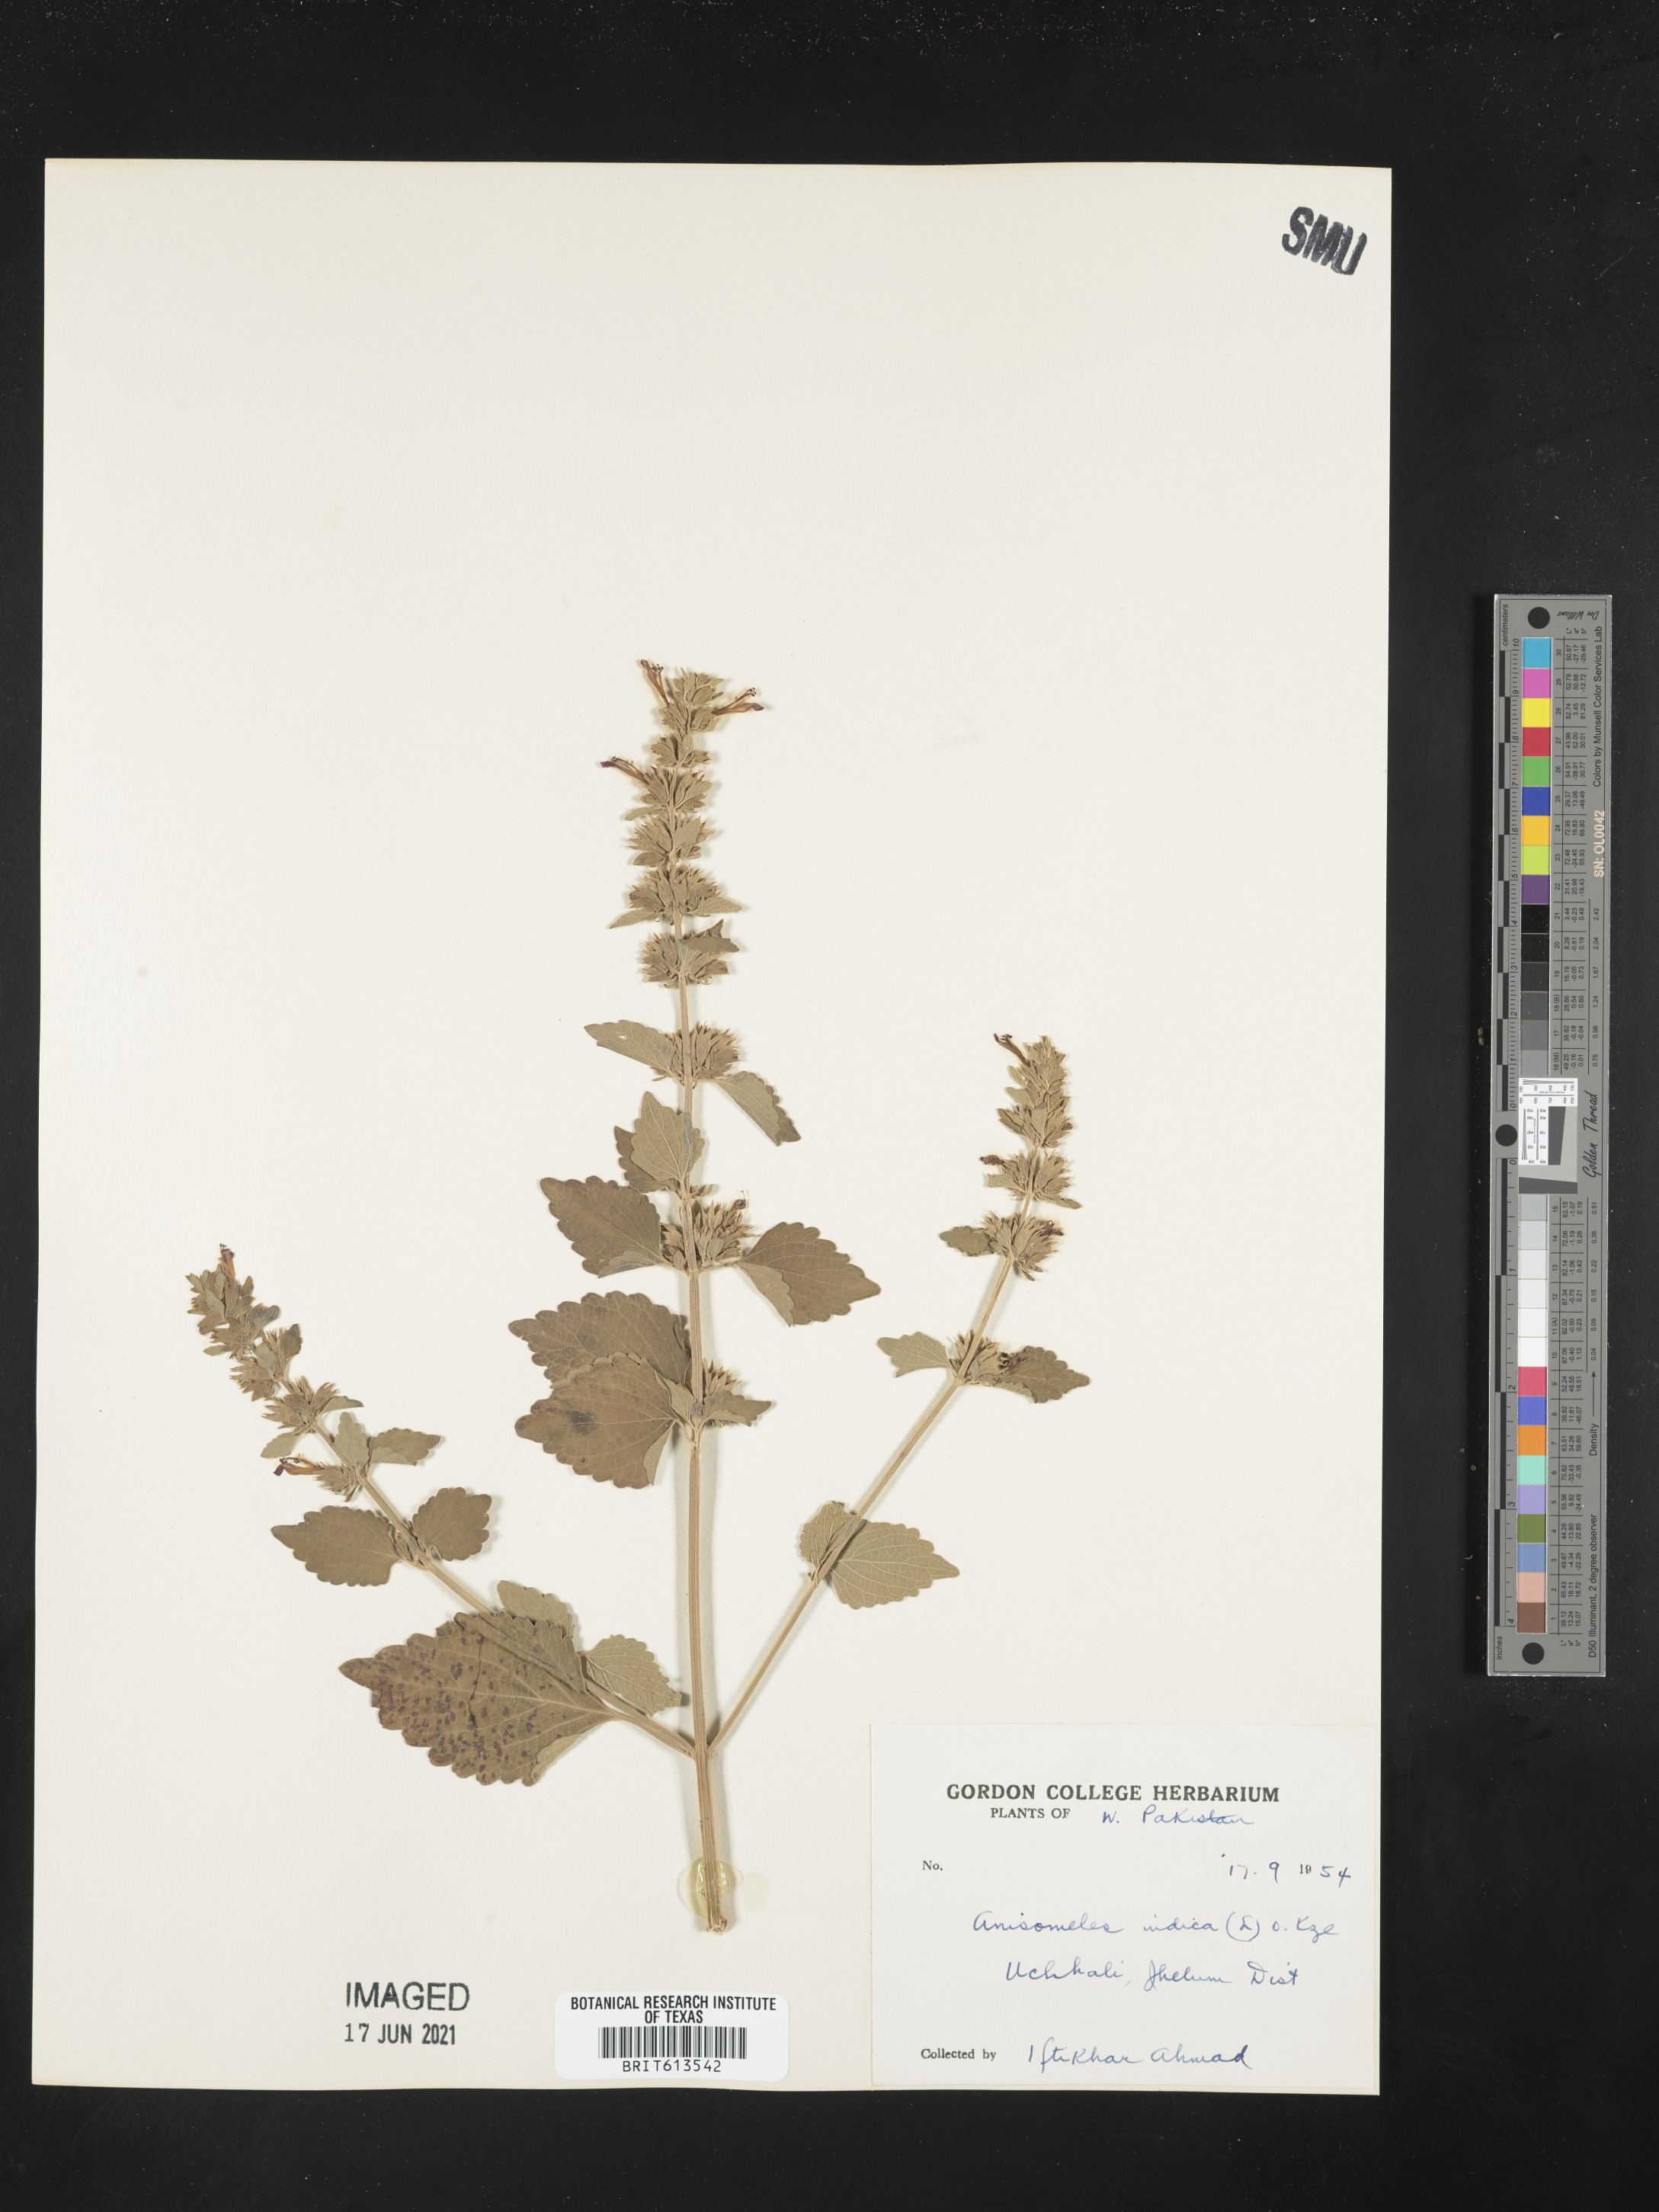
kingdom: Plantae
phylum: Tracheophyta
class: Magnoliopsida
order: Lamiales
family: Lamiaceae
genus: Anisomeles
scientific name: Anisomeles indica
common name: Catmint
